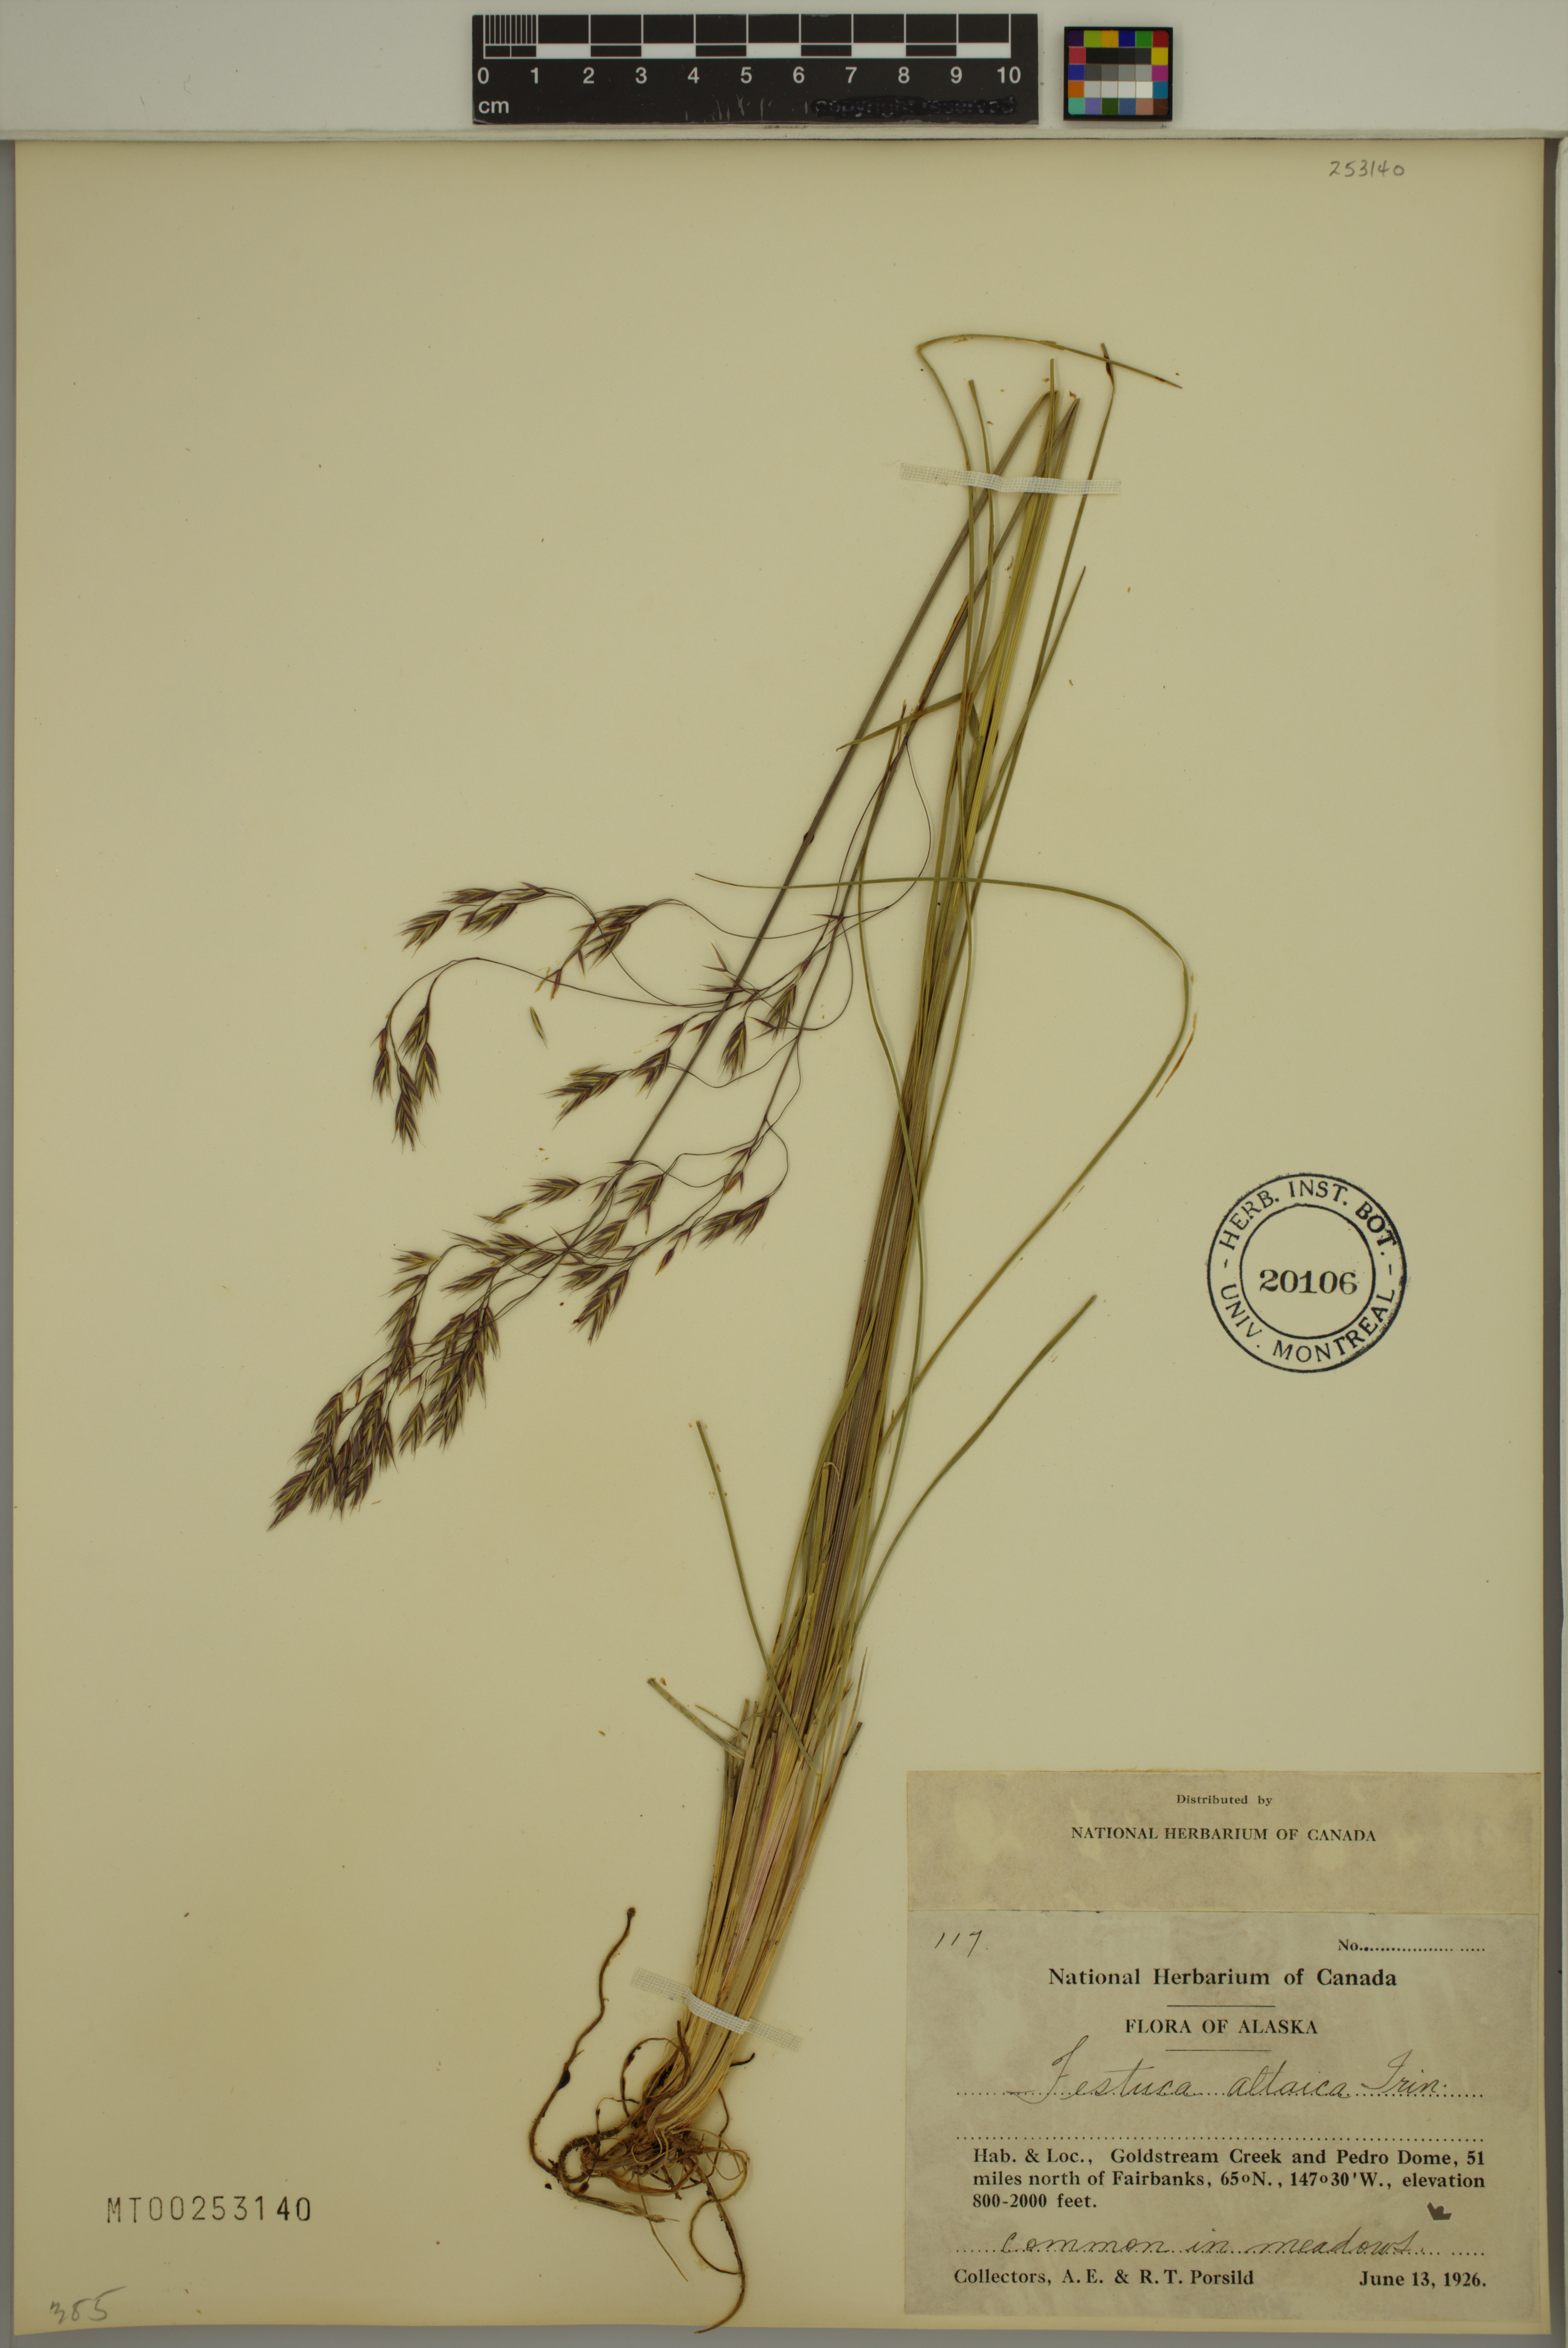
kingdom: Plantae
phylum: Tracheophyta
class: Liliopsida
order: Poales
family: Poaceae
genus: Festuca
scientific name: Festuca altaica
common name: Northern rough fescue
